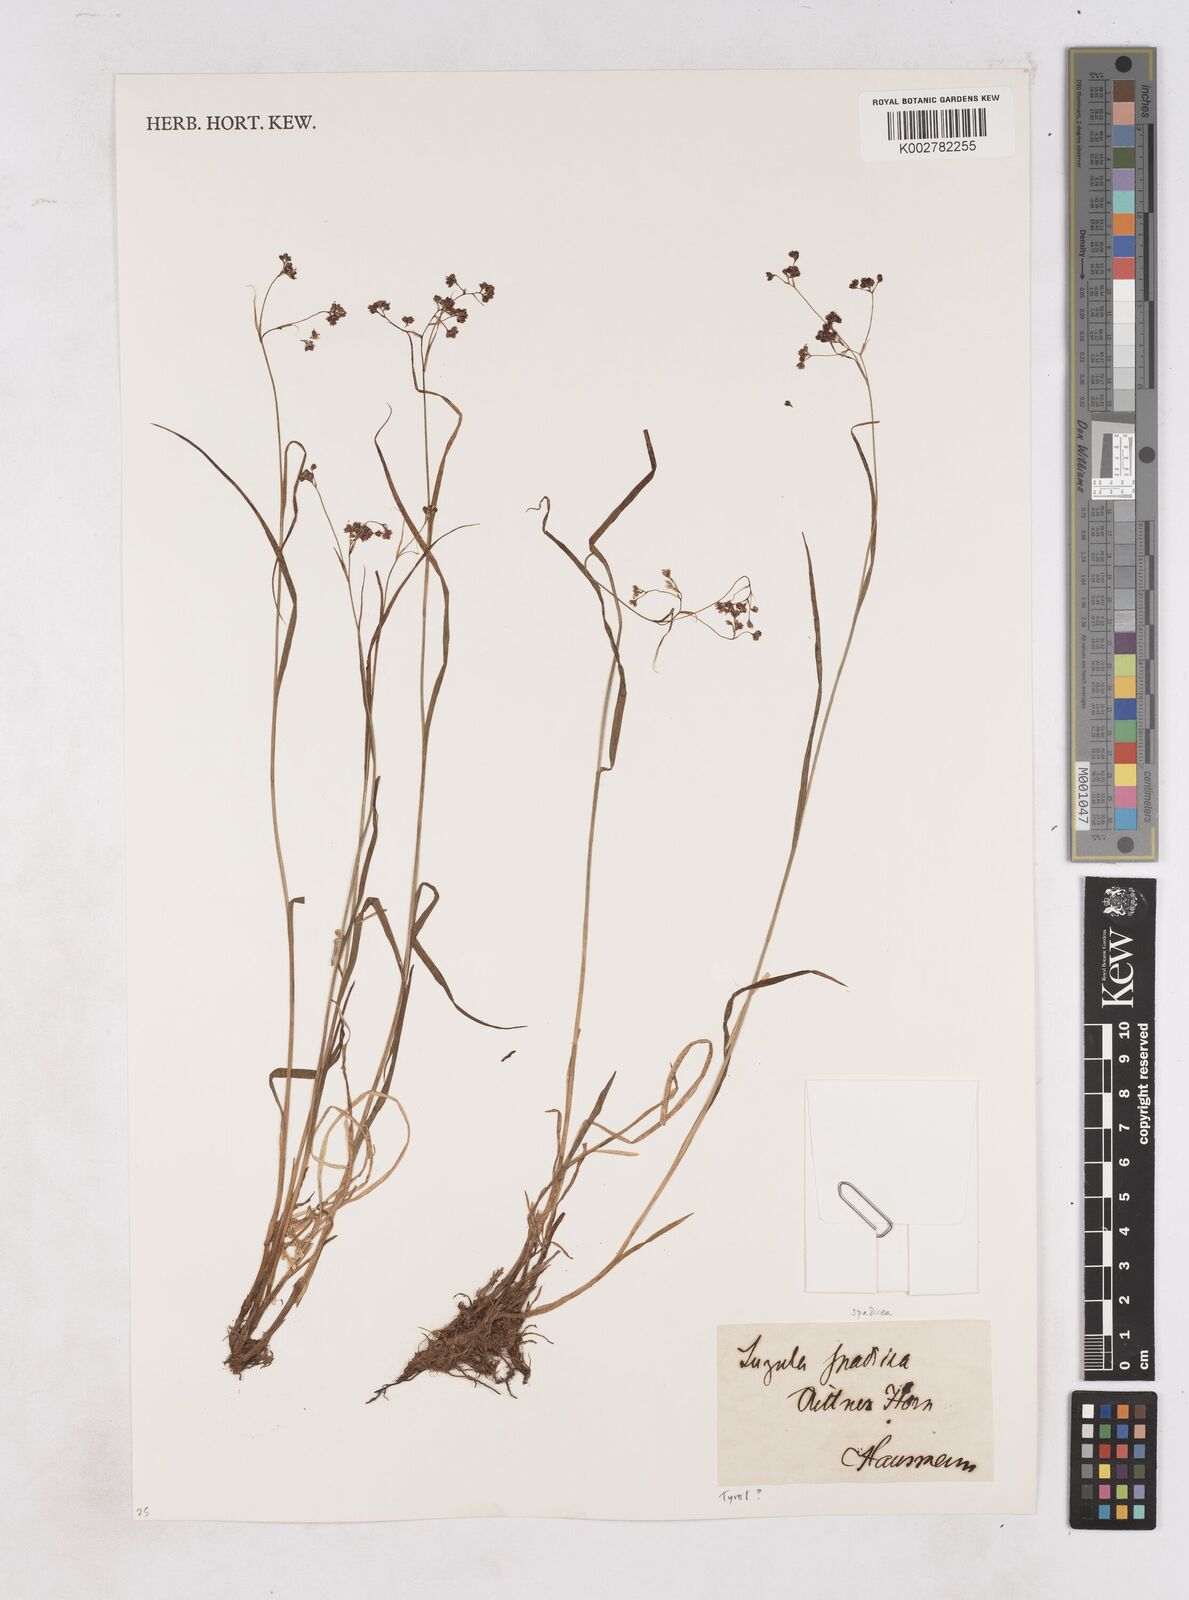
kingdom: Plantae
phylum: Tracheophyta
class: Liliopsida
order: Poales
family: Juncaceae
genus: Luzula
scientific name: Luzula alpinopilosa
